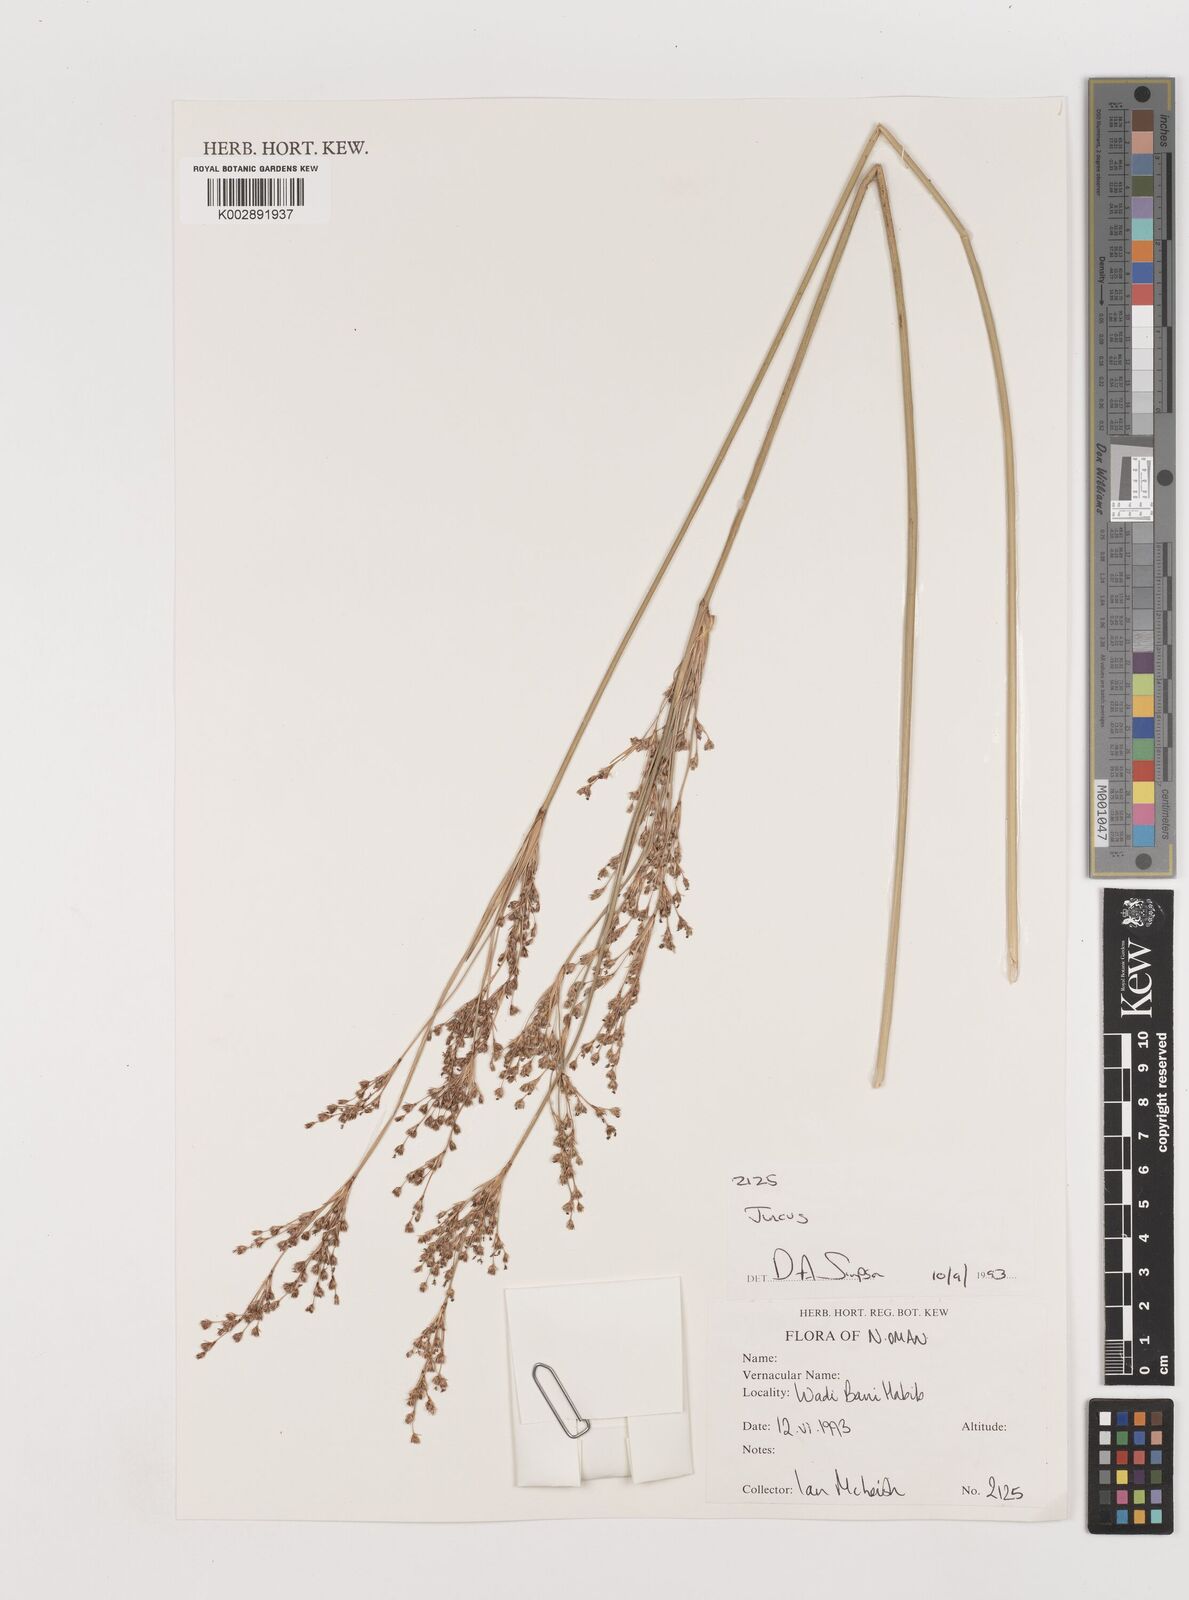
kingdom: Plantae
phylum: Tracheophyta
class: Liliopsida
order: Poales
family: Juncaceae
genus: Juncus
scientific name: Juncus
